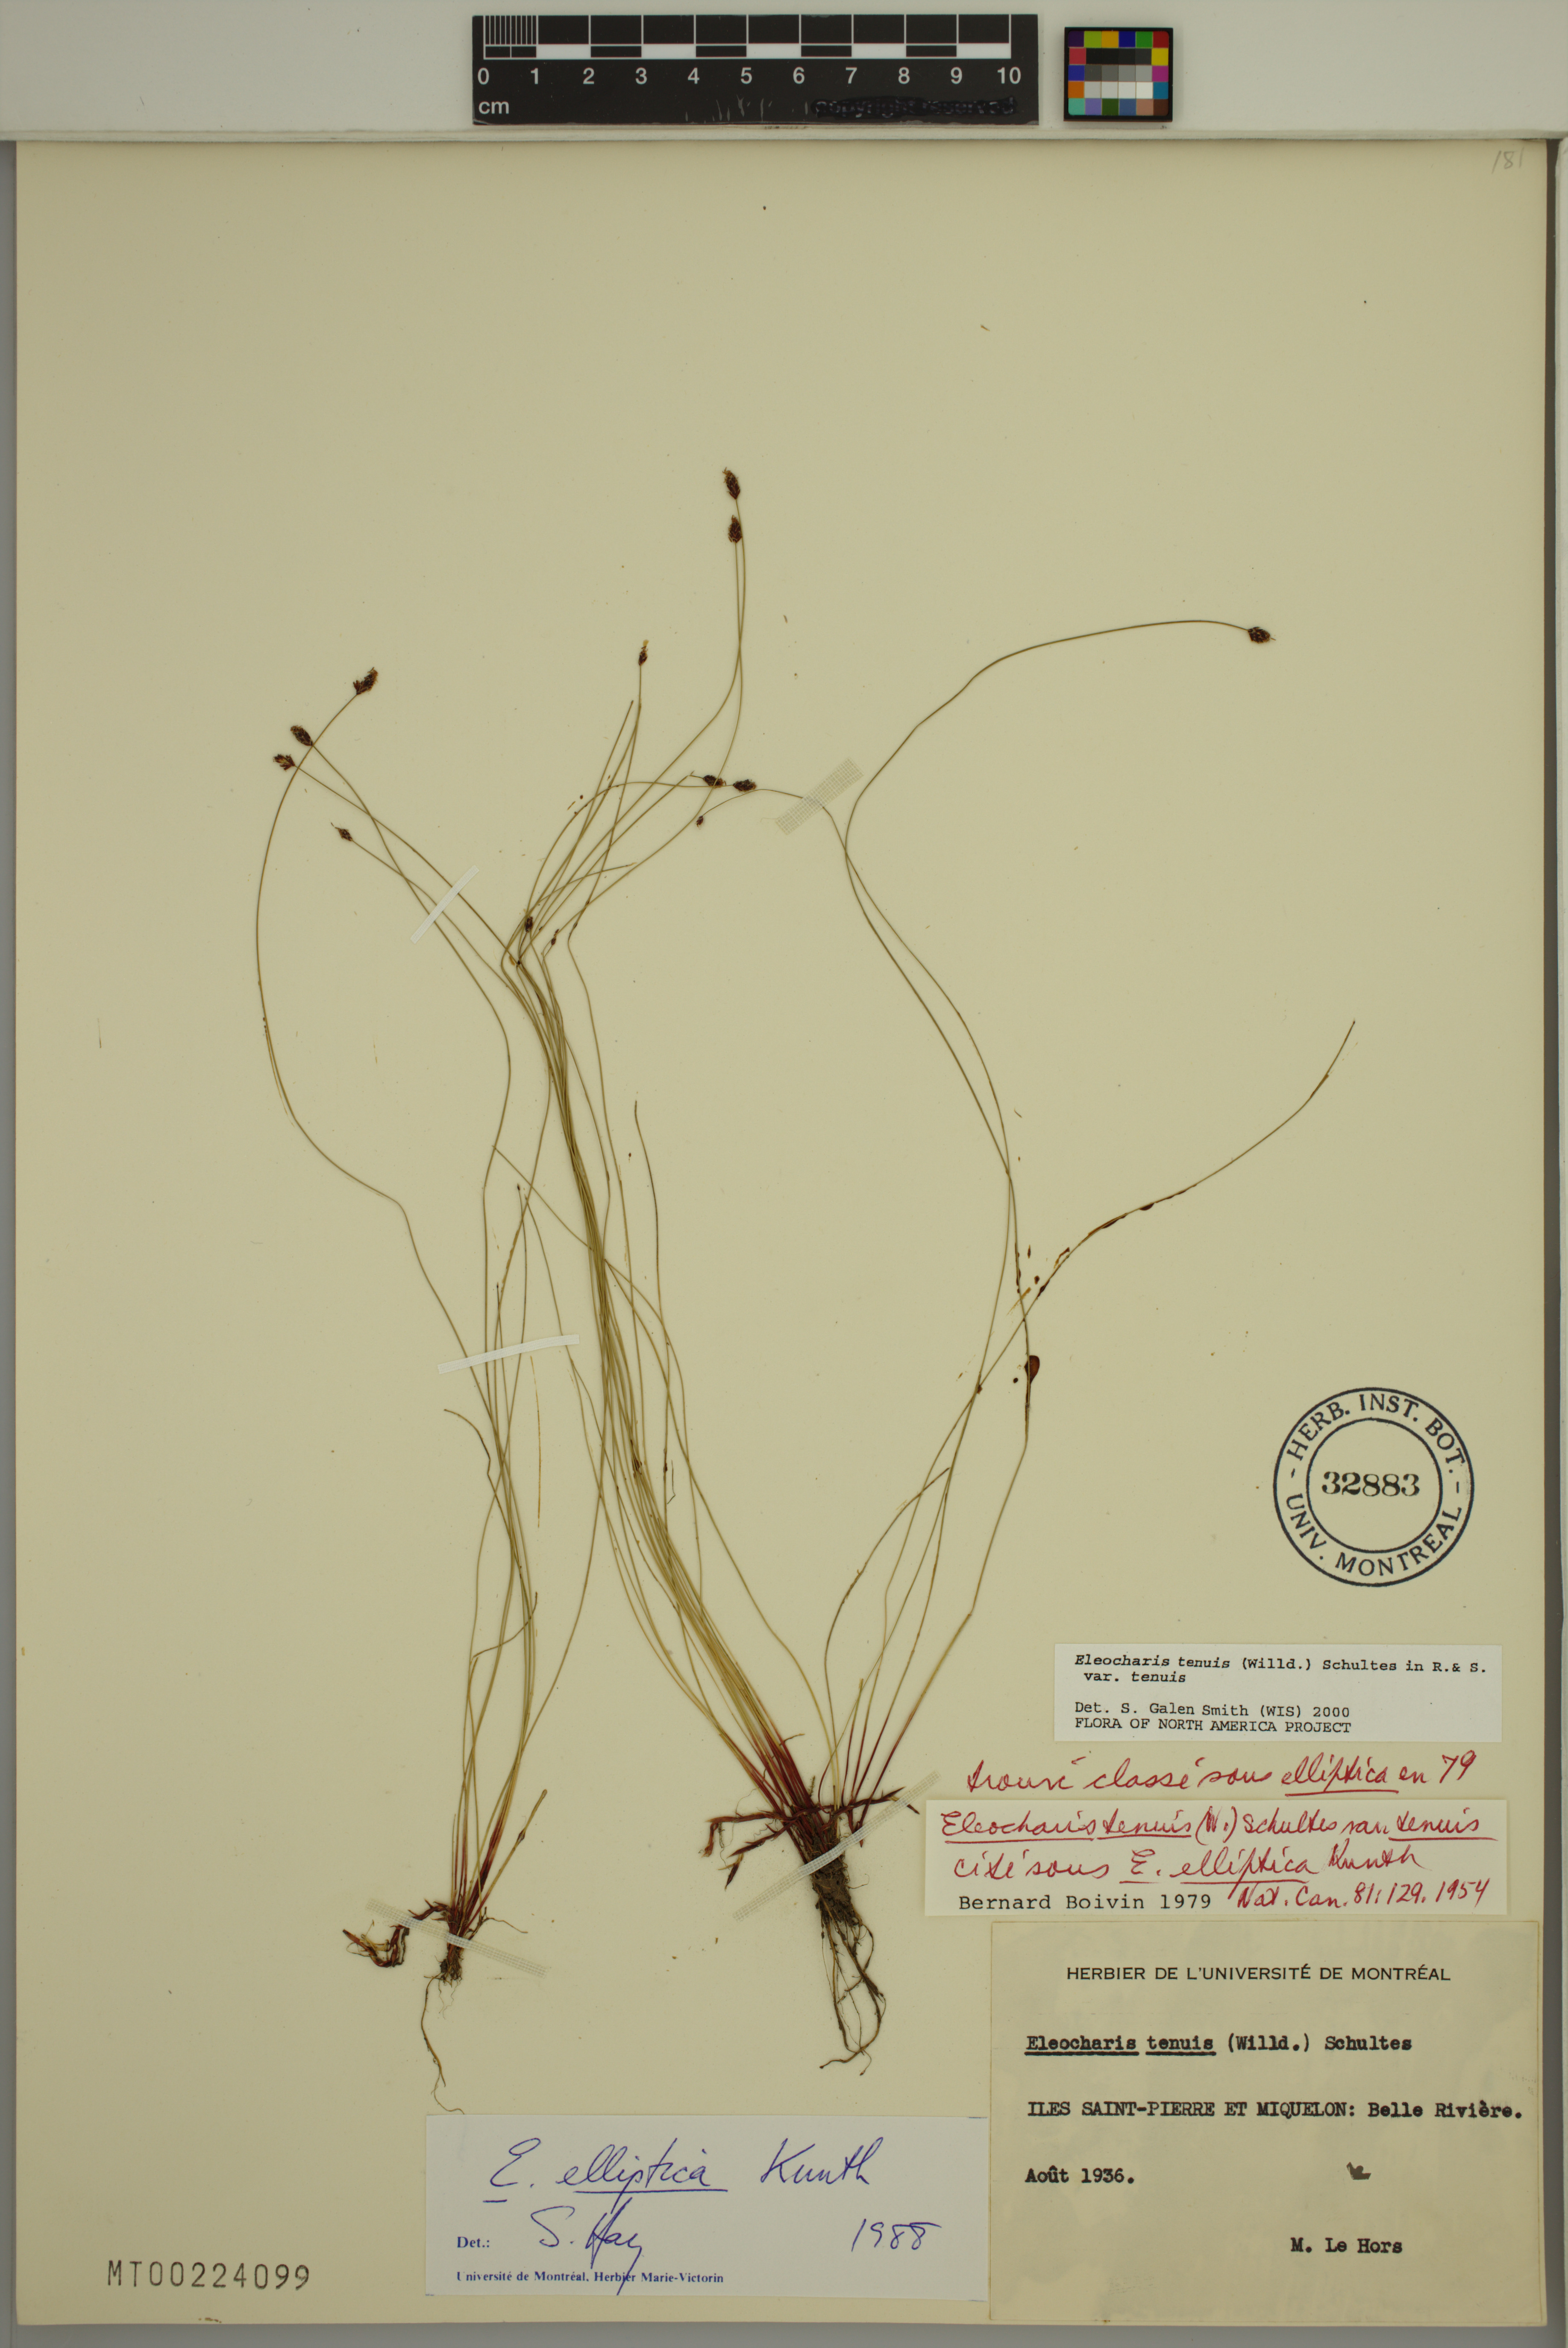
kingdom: Plantae
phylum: Tracheophyta
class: Liliopsida
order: Poales
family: Cyperaceae
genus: Eleocharis
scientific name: Eleocharis tenuis
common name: Dog's hair
